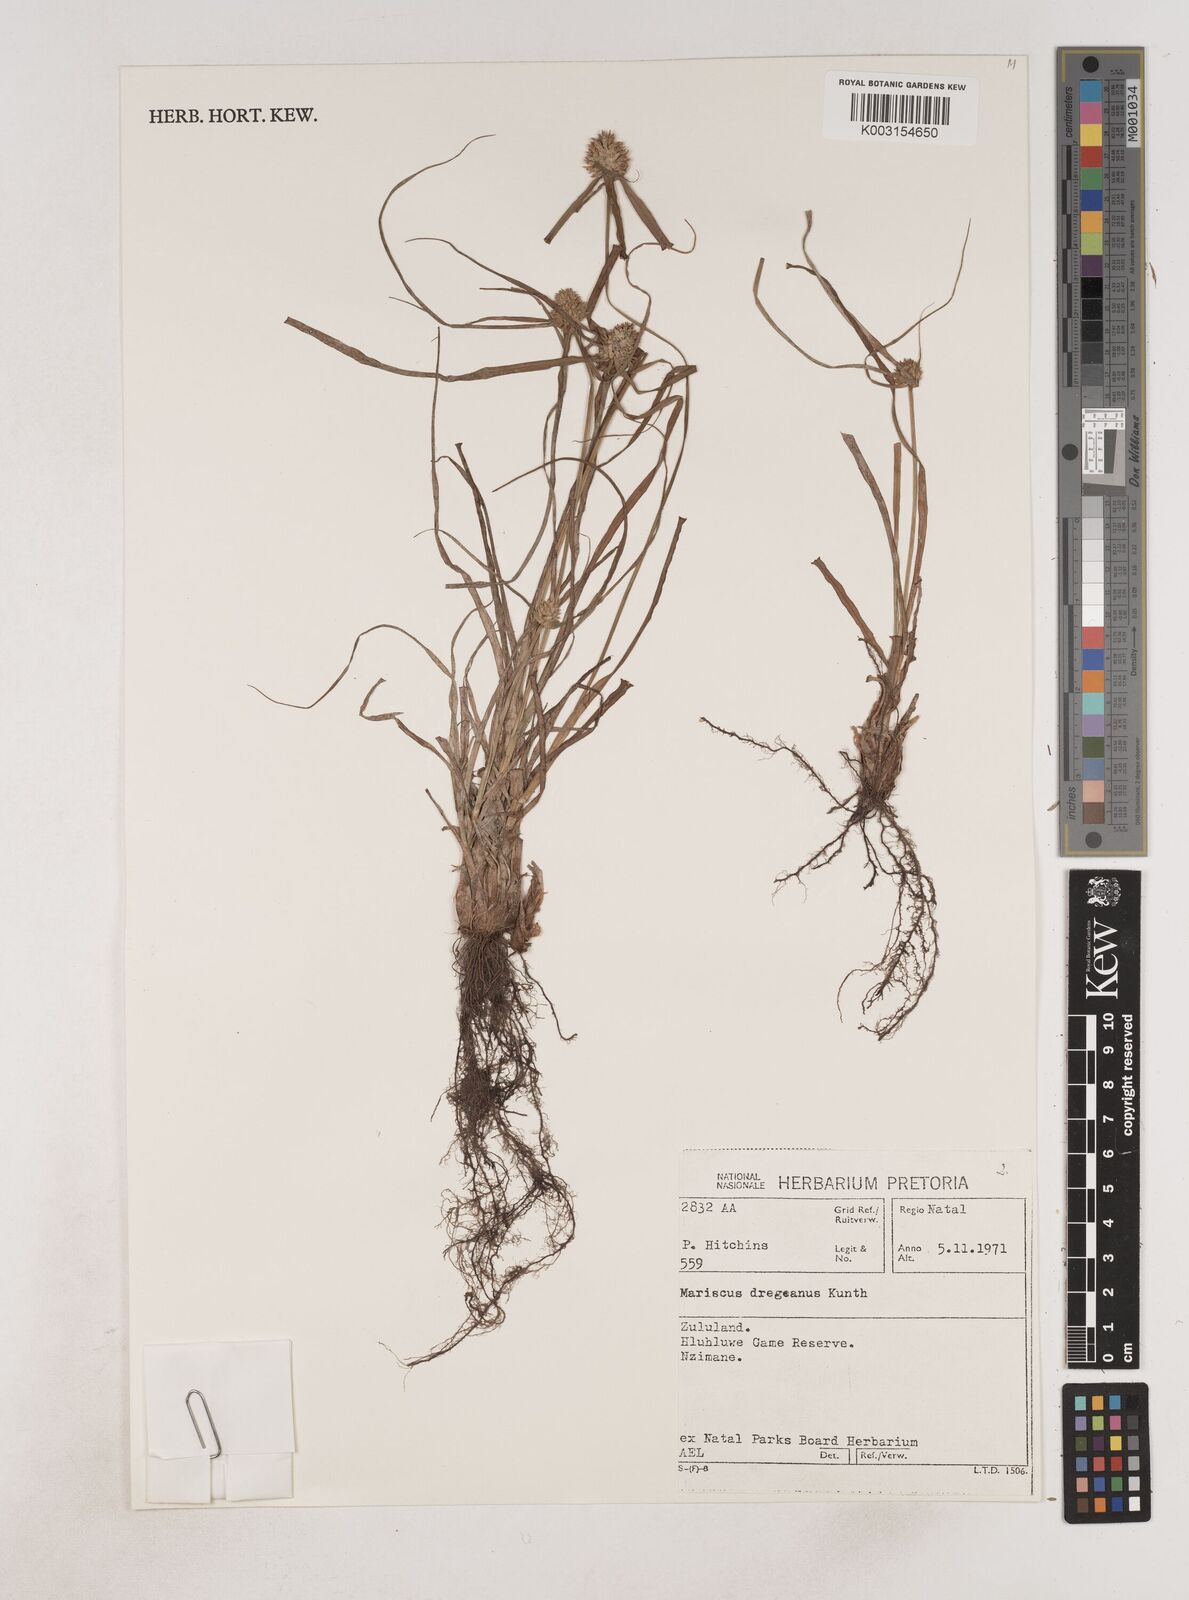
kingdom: Plantae
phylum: Tracheophyta
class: Liliopsida
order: Poales
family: Cyperaceae
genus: Cyperus
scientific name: Cyperus dubius
